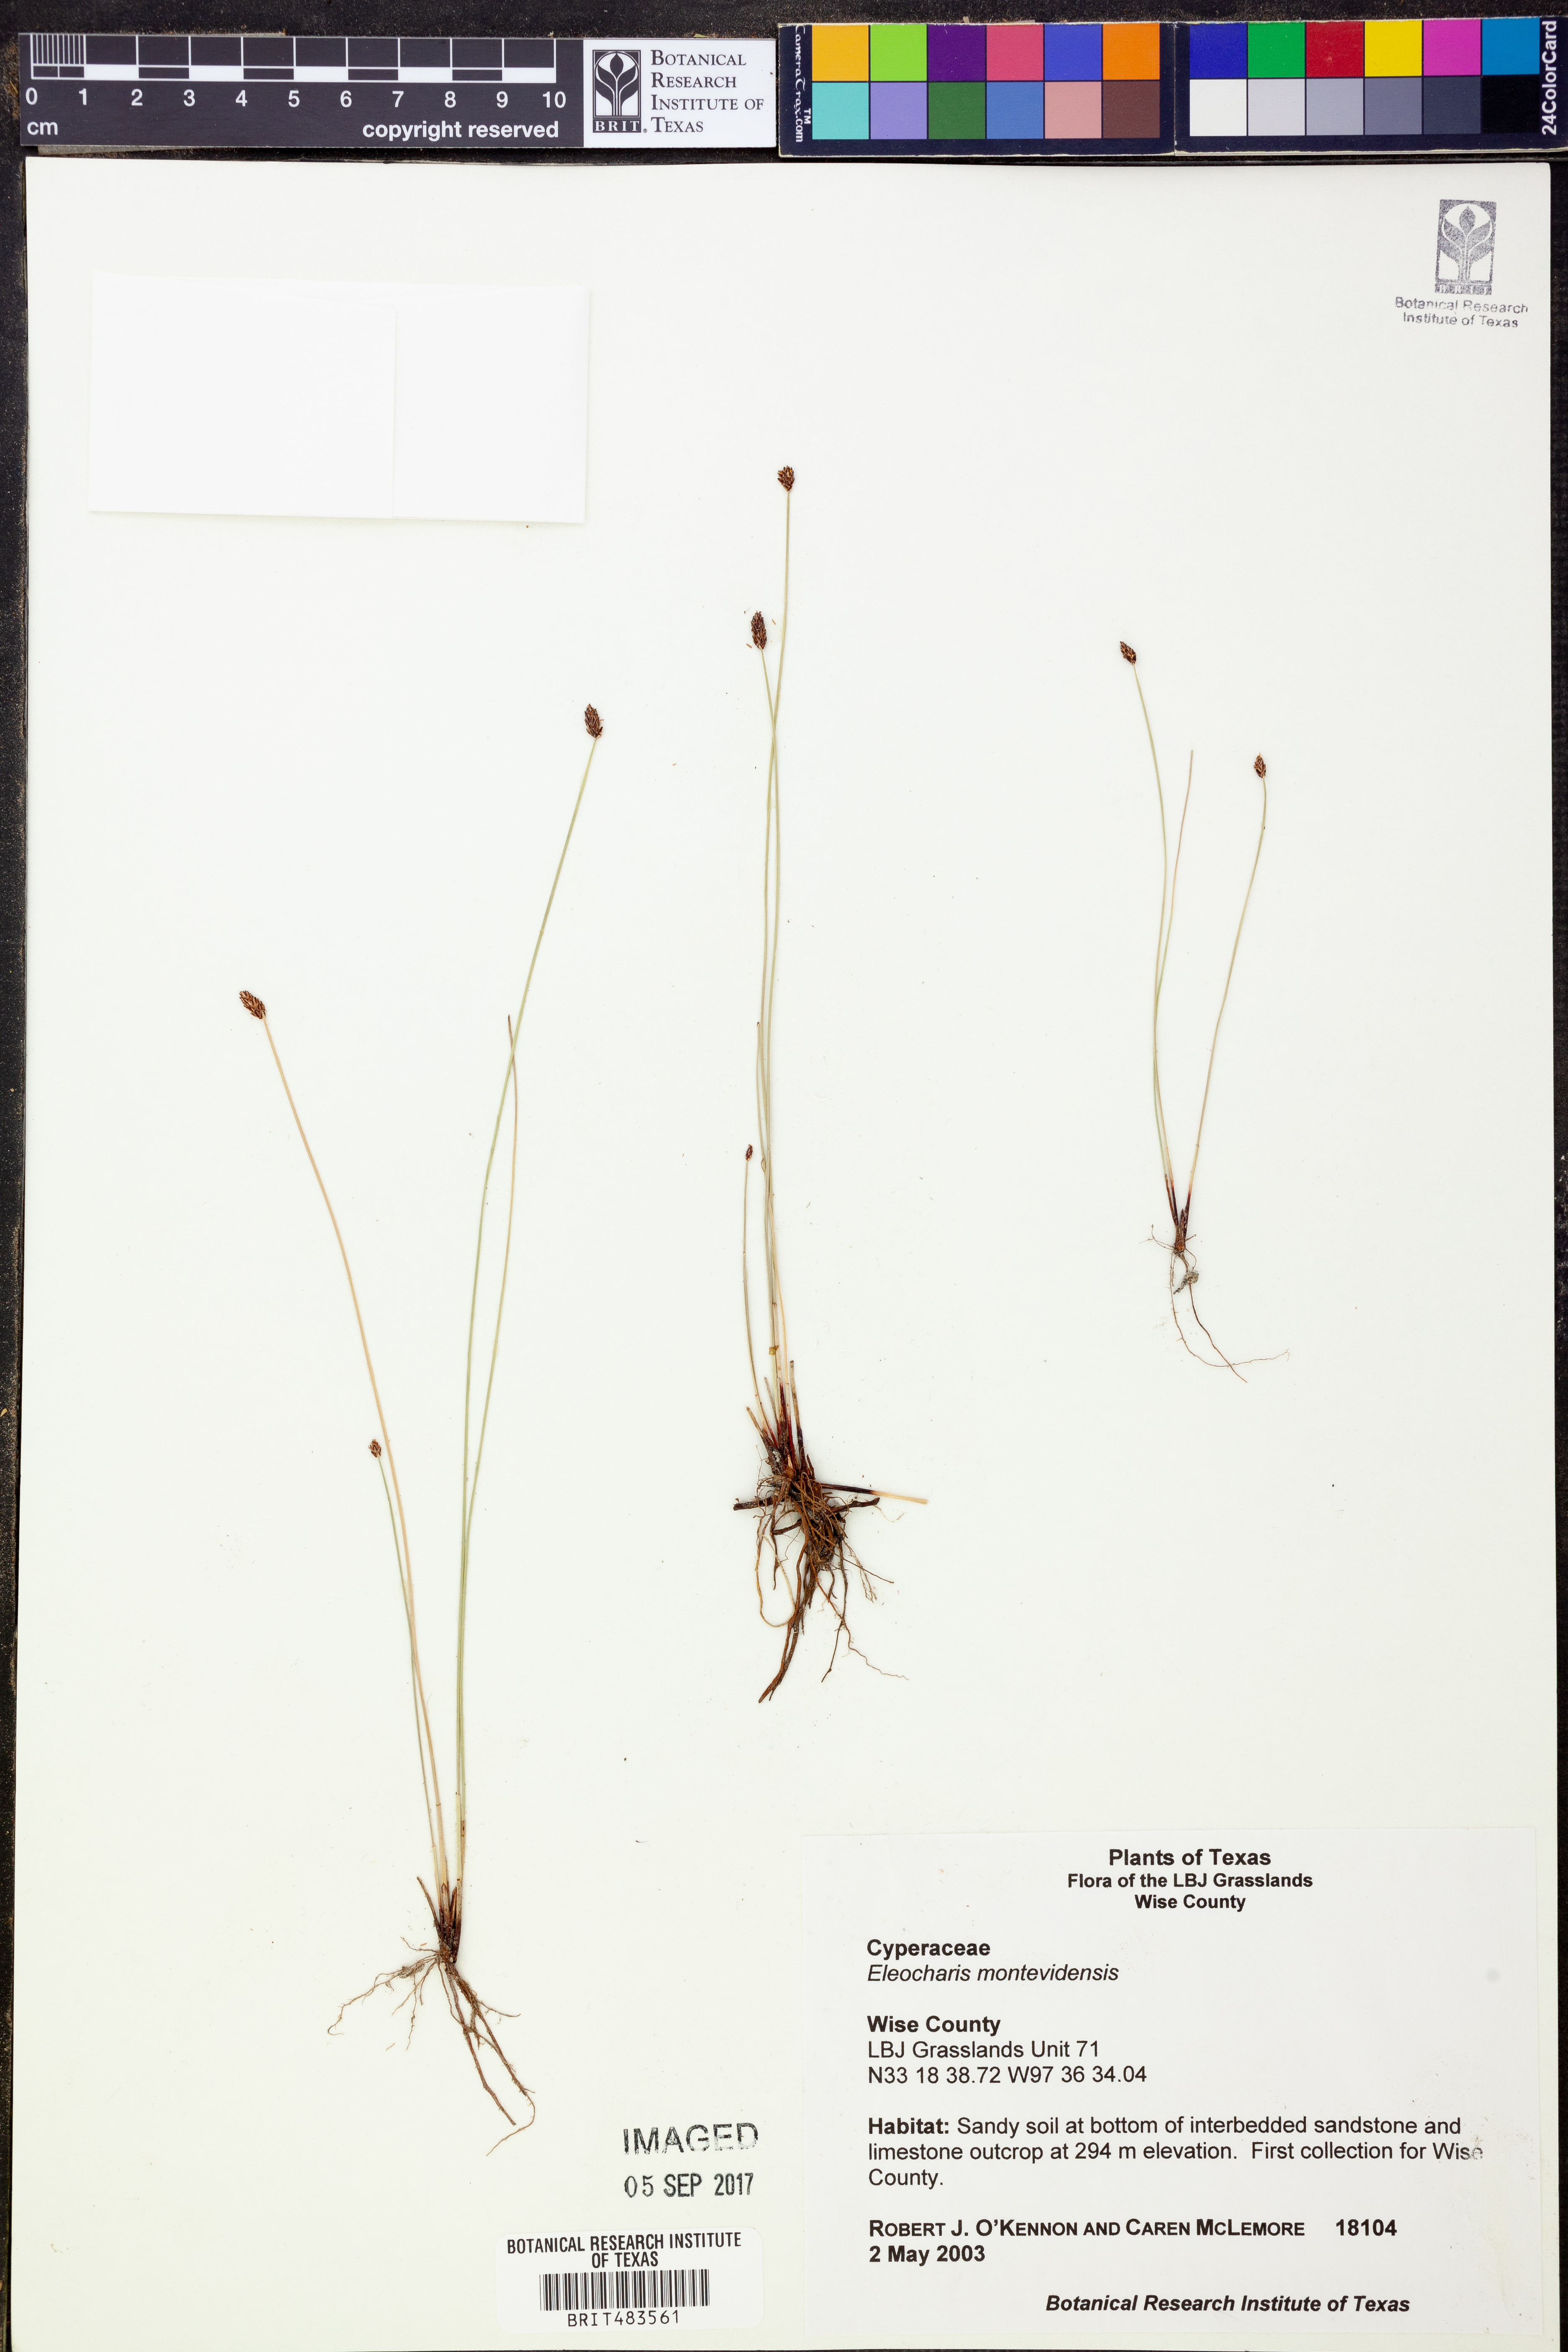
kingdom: Plantae
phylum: Tracheophyta
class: Liliopsida
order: Poales
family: Cyperaceae
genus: Eleocharis
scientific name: Eleocharis montevidensis
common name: Sand spike-rush
